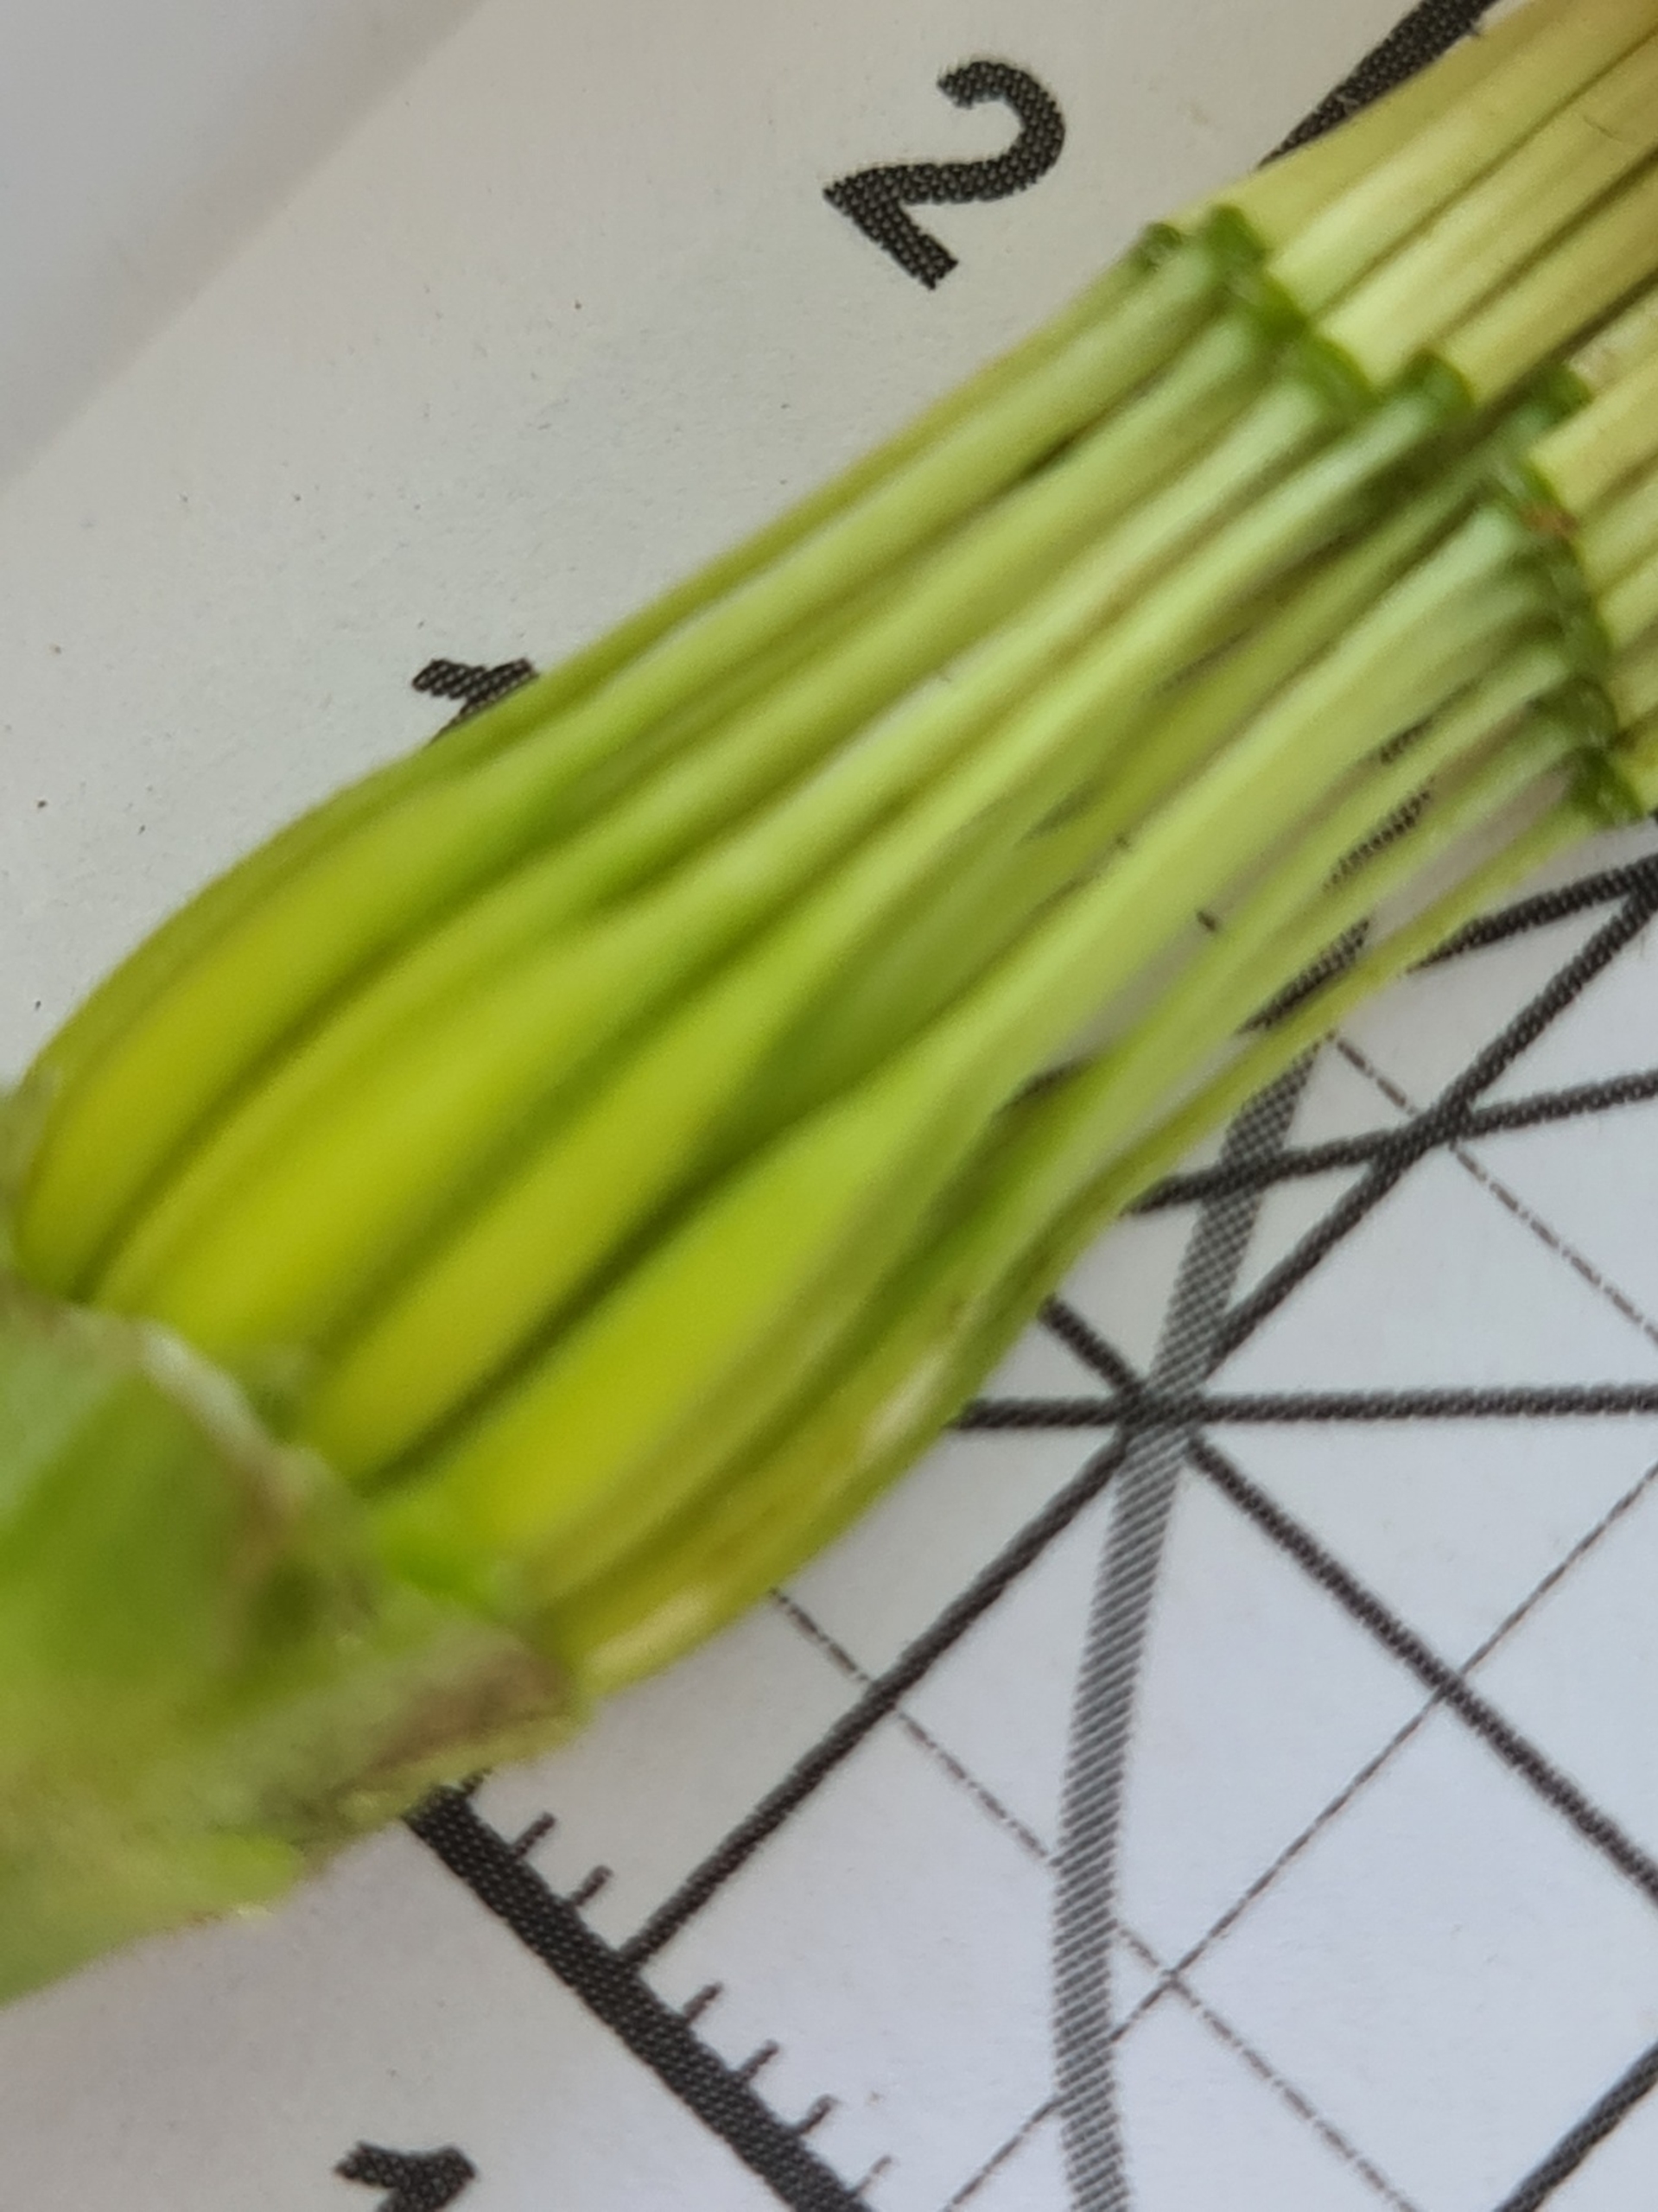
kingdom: Plantae
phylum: Tracheophyta
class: Magnoliopsida
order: Asterales
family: Asteraceae
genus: Tragopogon
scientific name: Tragopogon pratensis
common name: Gedeskæg
